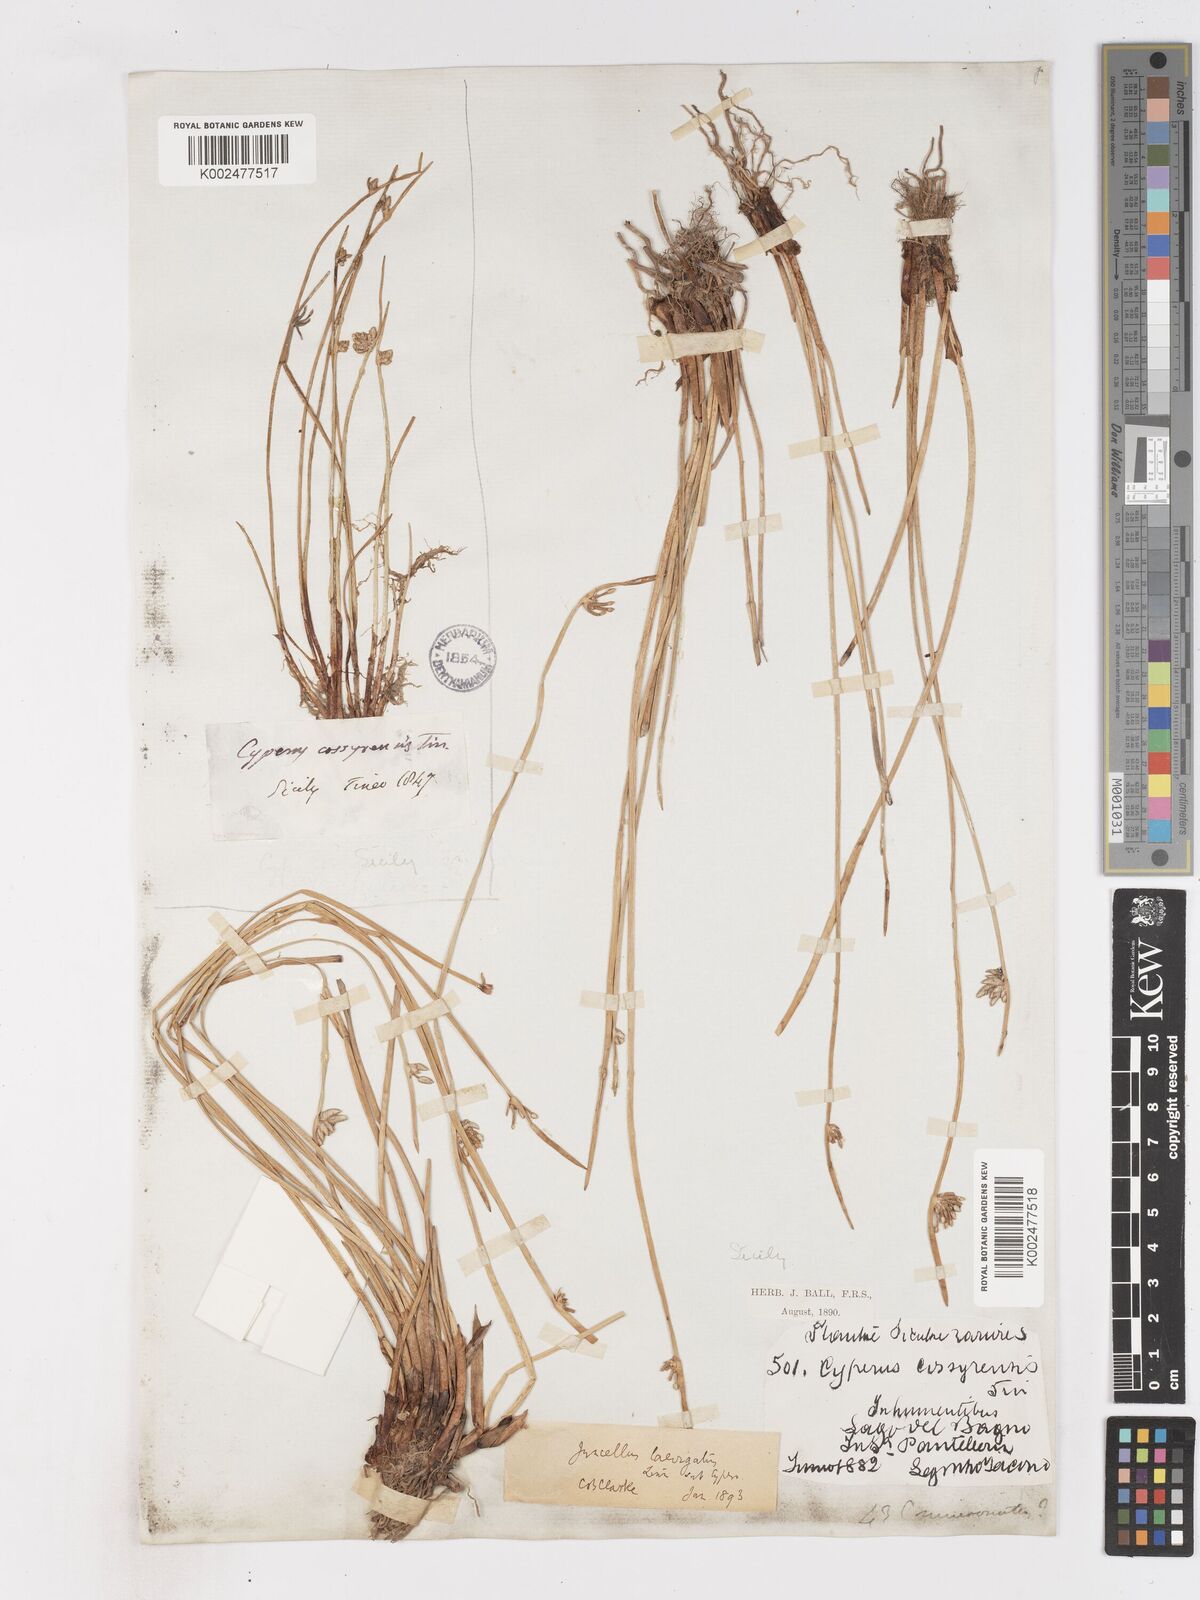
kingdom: Plantae
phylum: Tracheophyta
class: Liliopsida
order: Poales
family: Cyperaceae
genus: Cyperus
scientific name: Cyperus laevigatus
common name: Smooth flat sedge
